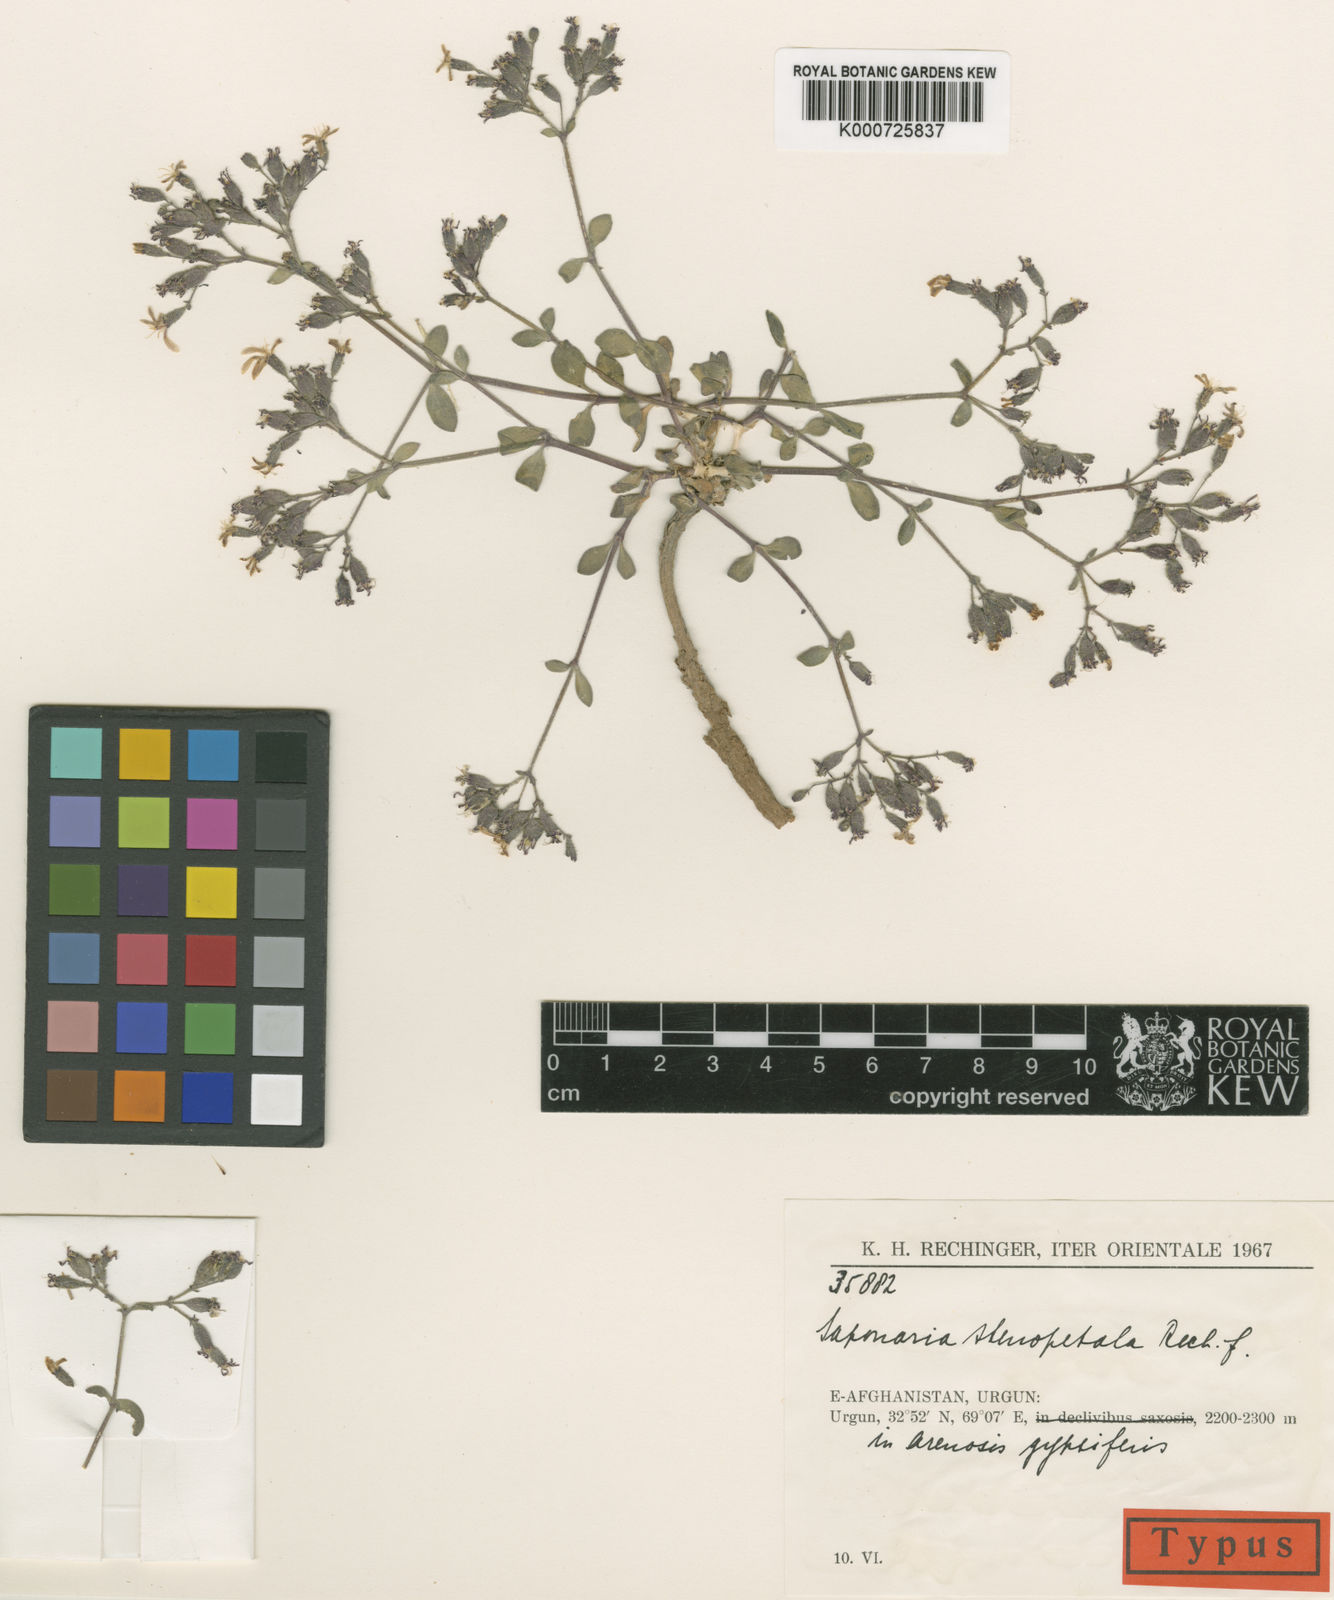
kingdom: Plantae
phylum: Tracheophyta
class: Magnoliopsida
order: Caryophyllales
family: Caryophyllaceae
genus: Saponaria
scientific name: Saponaria stenopetala
